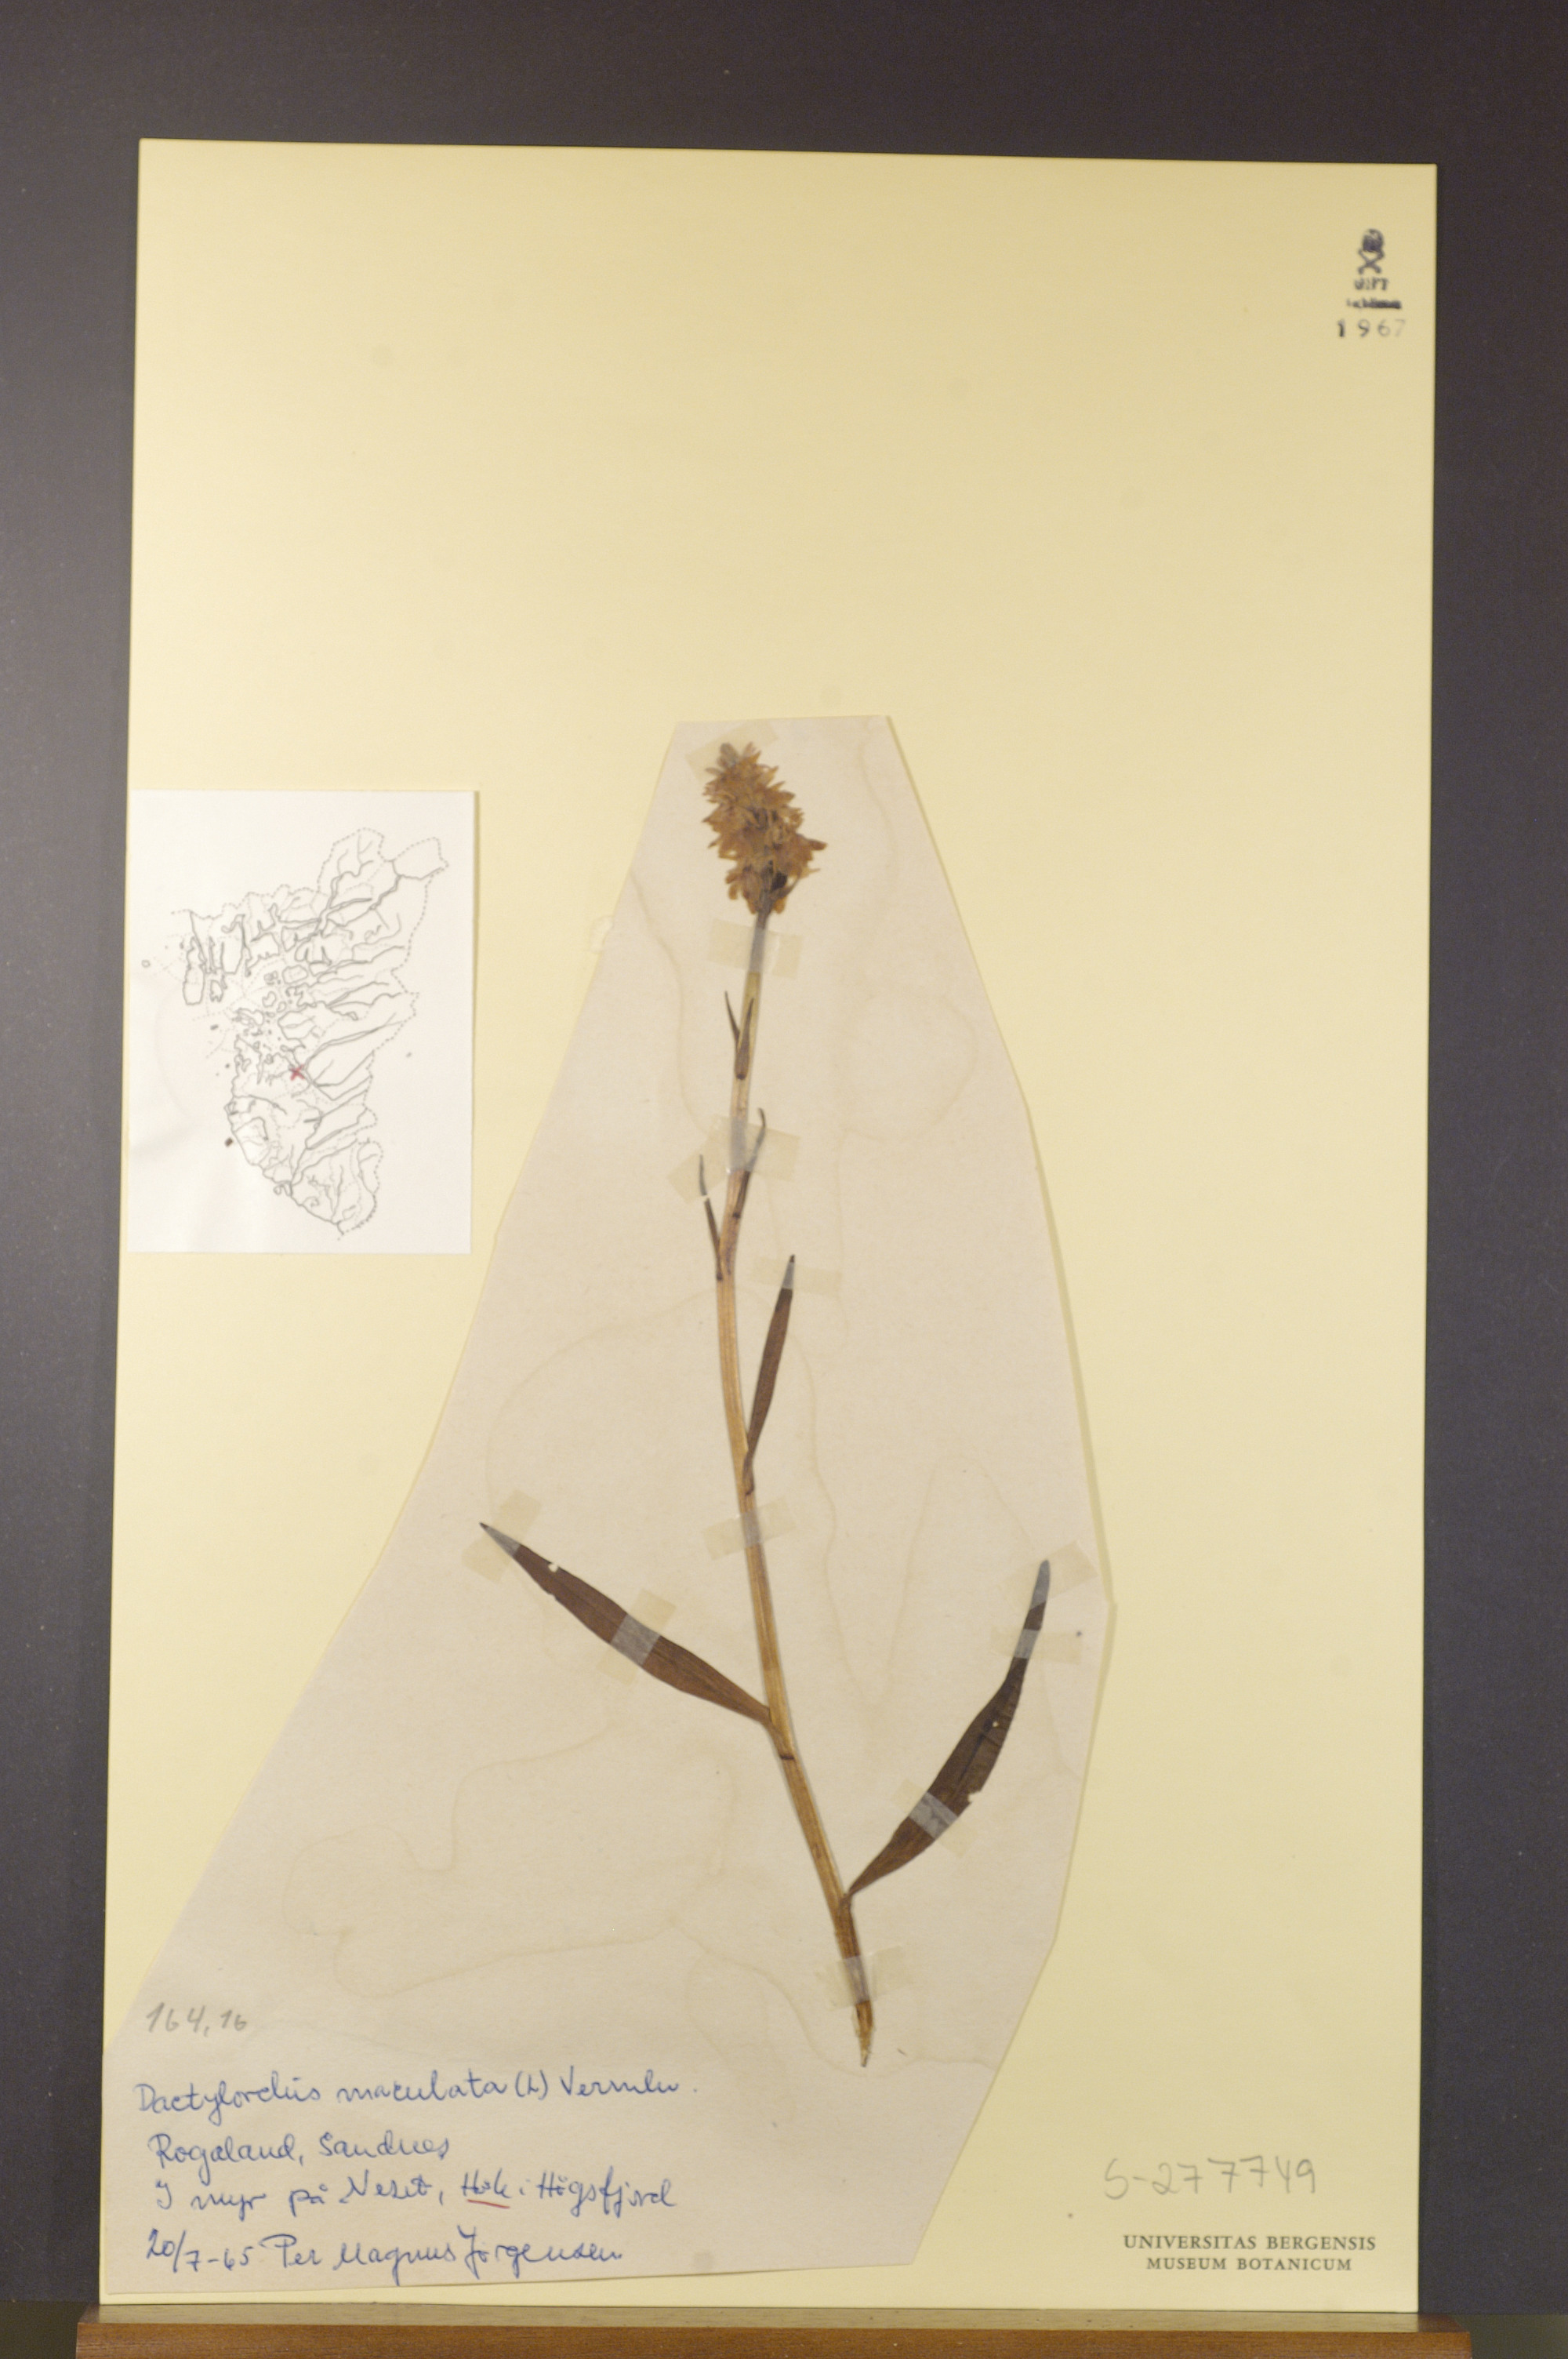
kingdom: Plantae
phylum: Tracheophyta
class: Liliopsida
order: Asparagales
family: Orchidaceae
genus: Dactylorhiza
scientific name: Dactylorhiza maculata
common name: Heath spotted-orchid
